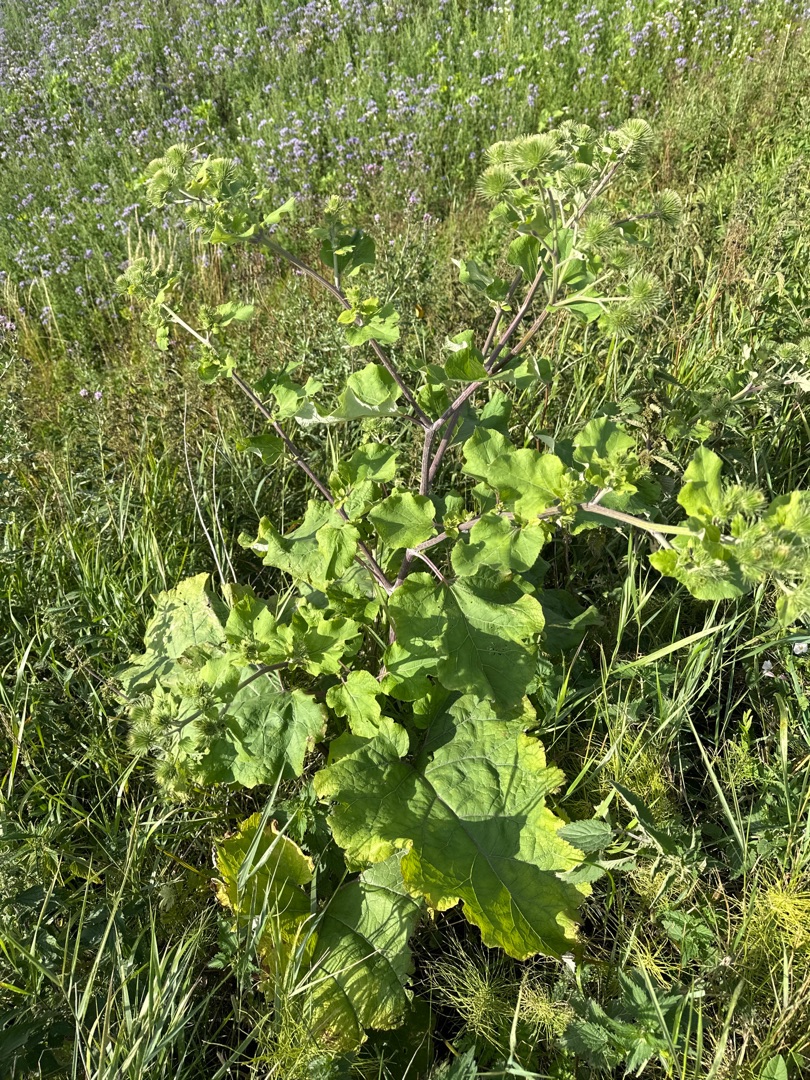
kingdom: Plantae
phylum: Tracheophyta
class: Magnoliopsida
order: Asterales
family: Asteraceae
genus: Arctium
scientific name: Arctium lappa
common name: Glat burre
